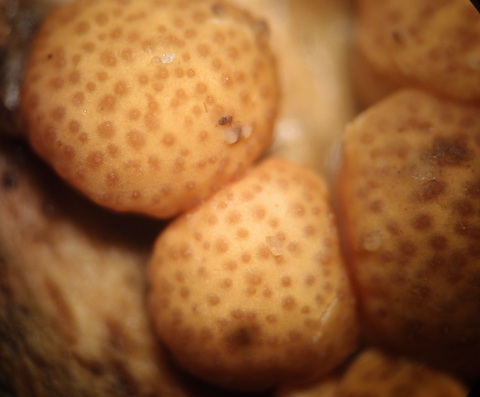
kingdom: Fungi
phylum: Ascomycota
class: Sordariomycetes
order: Hypocreales
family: Hypocreaceae
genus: Trichoderma
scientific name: Trichoderma europaeum
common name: rosabrun kødkerne
